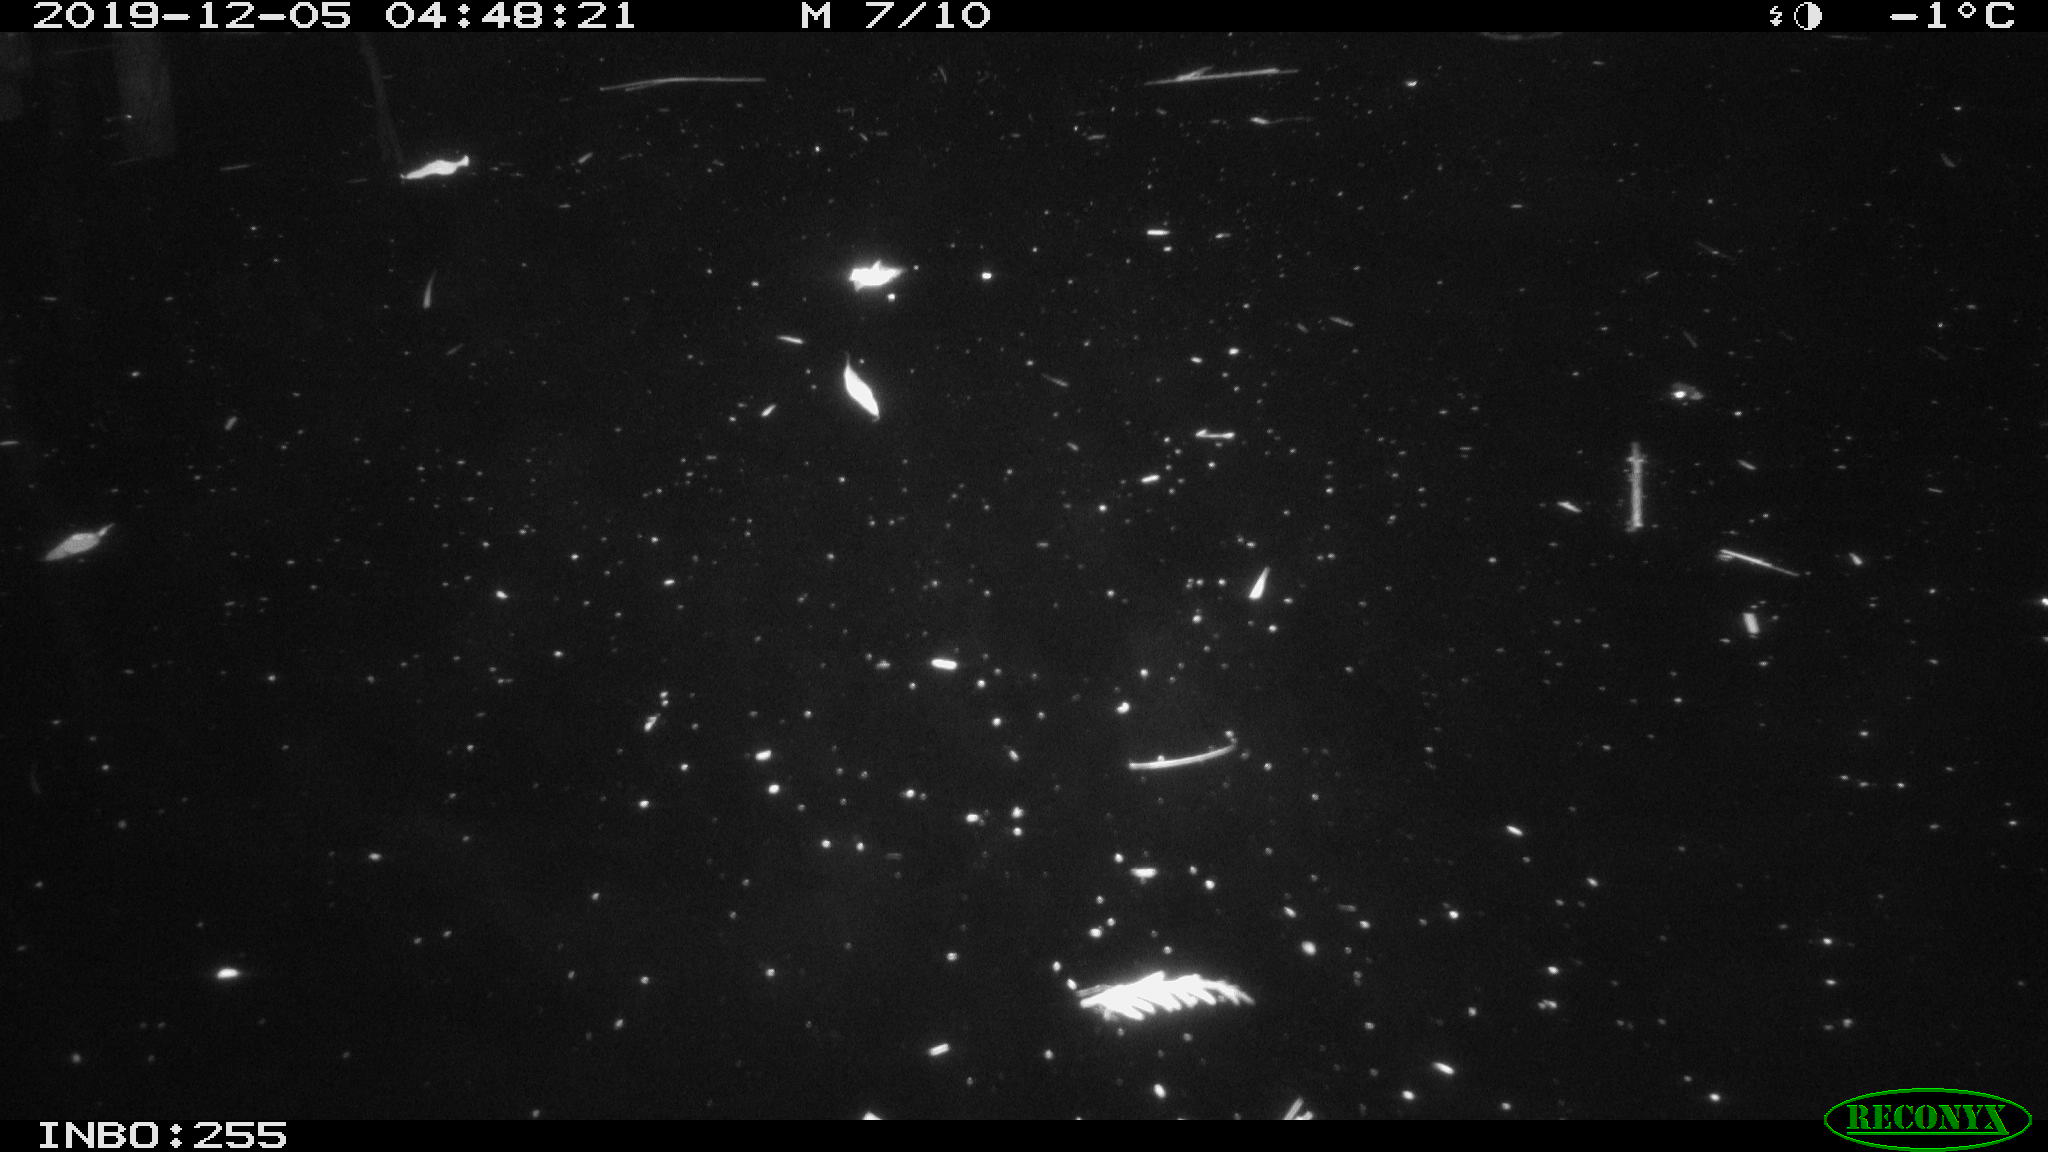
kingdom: Animalia
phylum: Chordata
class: Aves
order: Anseriformes
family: Anatidae
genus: Anas
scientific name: Anas platyrhynchos
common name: Mallard
